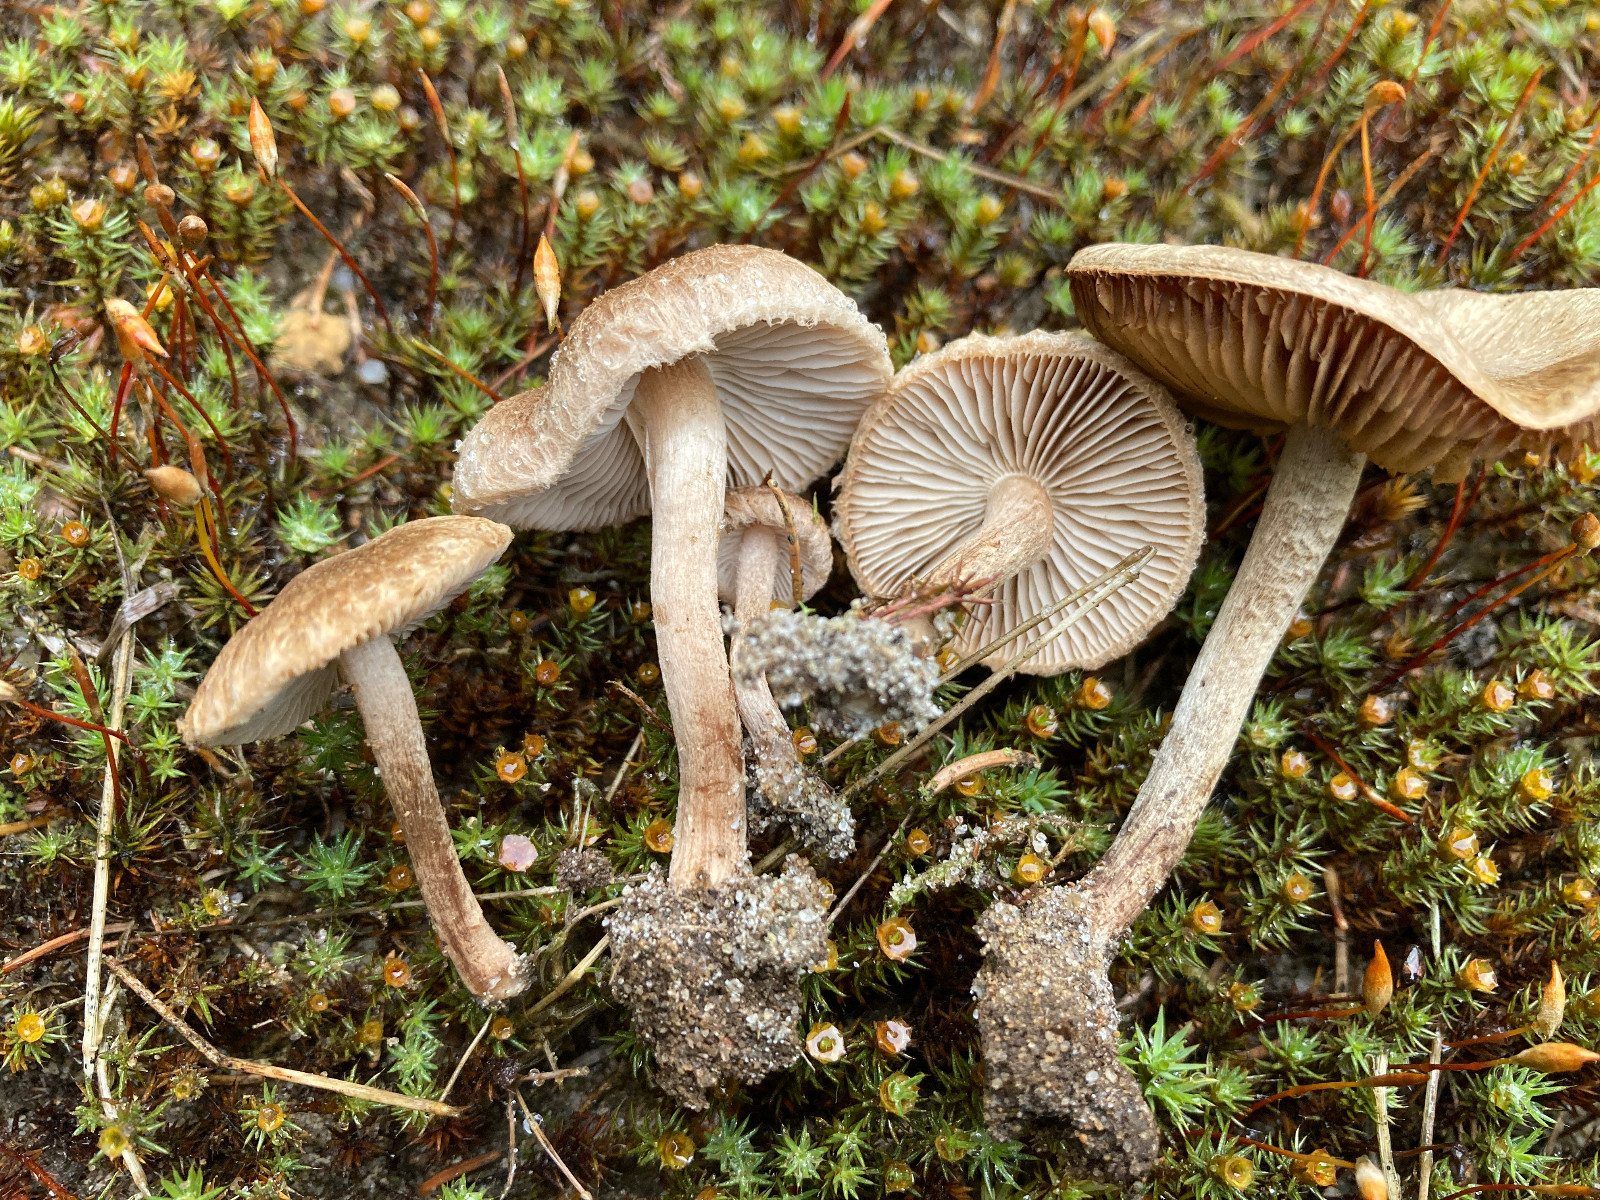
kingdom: Fungi
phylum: Basidiomycota
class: Agaricomycetes
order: Agaricales
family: Inocybaceae
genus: Inocybe
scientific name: Inocybe lacera
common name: laset trævlhat
